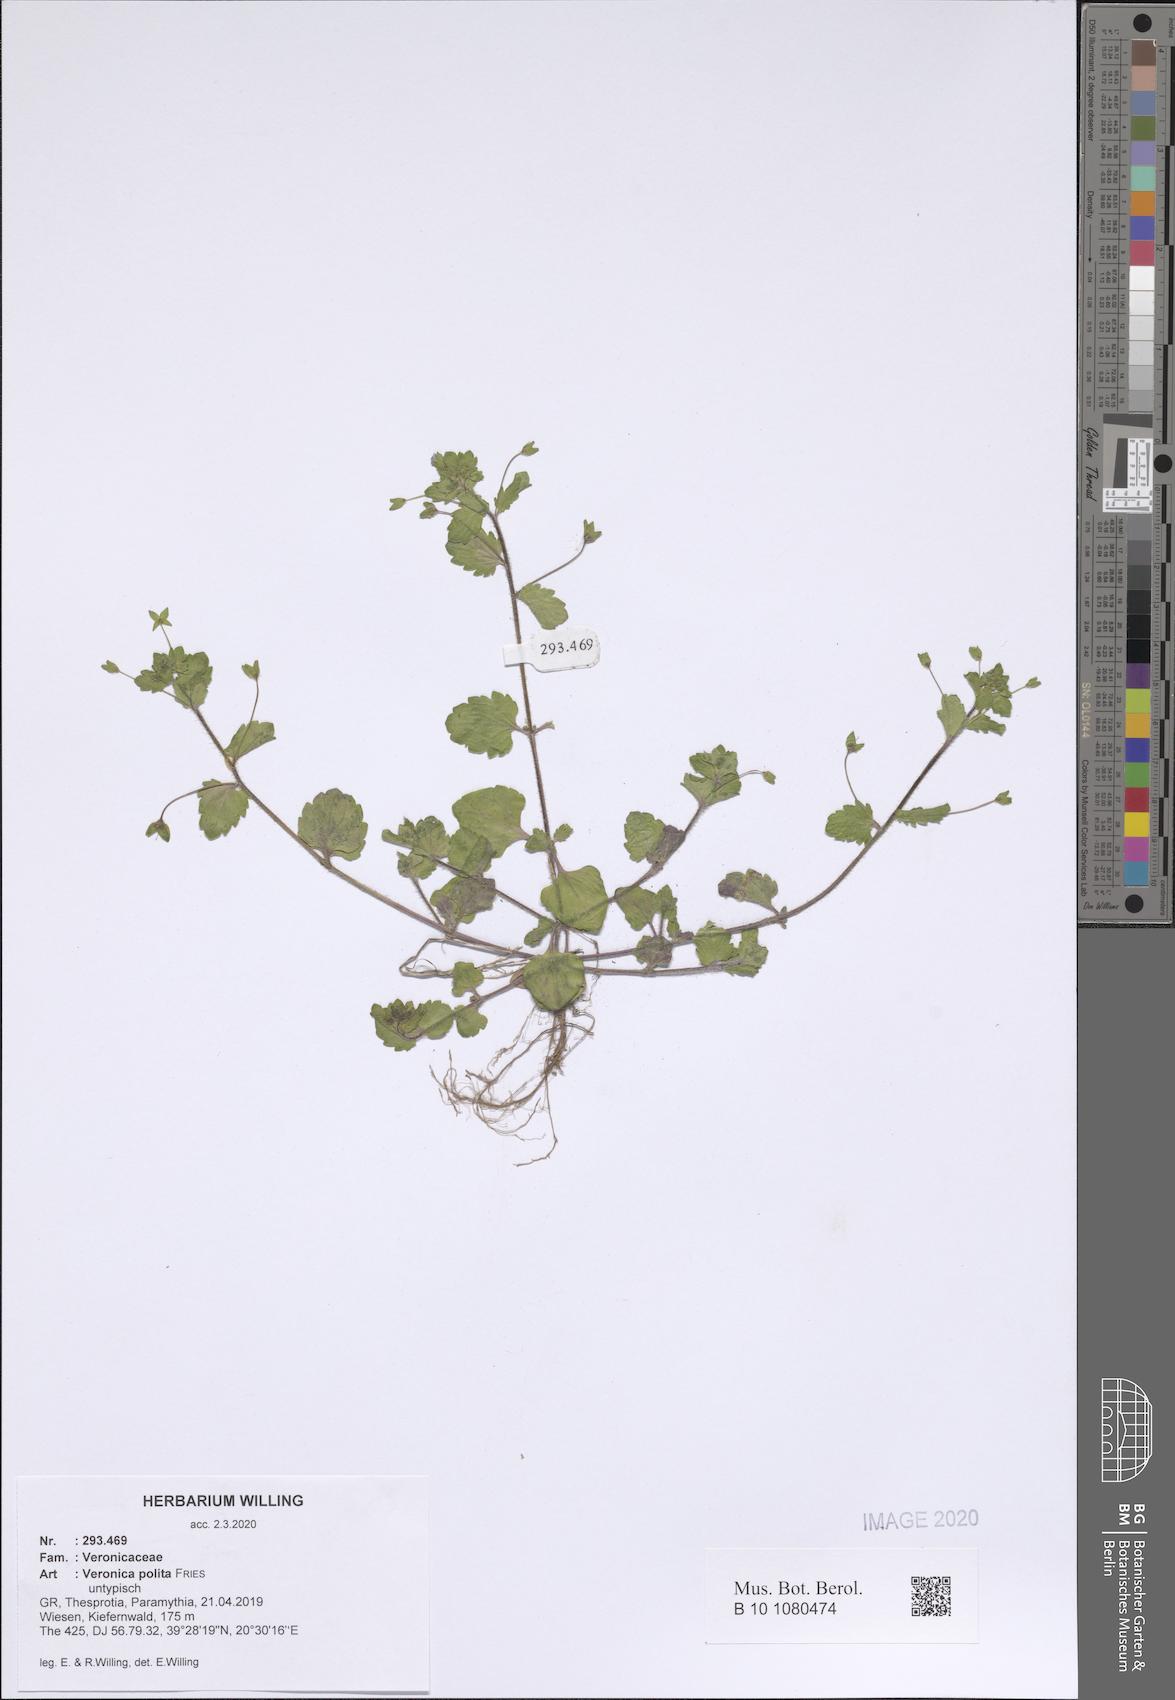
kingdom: Plantae
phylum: Tracheophyta
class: Magnoliopsida
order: Lamiales
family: Plantaginaceae
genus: Veronica
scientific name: Veronica polita
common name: Grey field-speedwell
